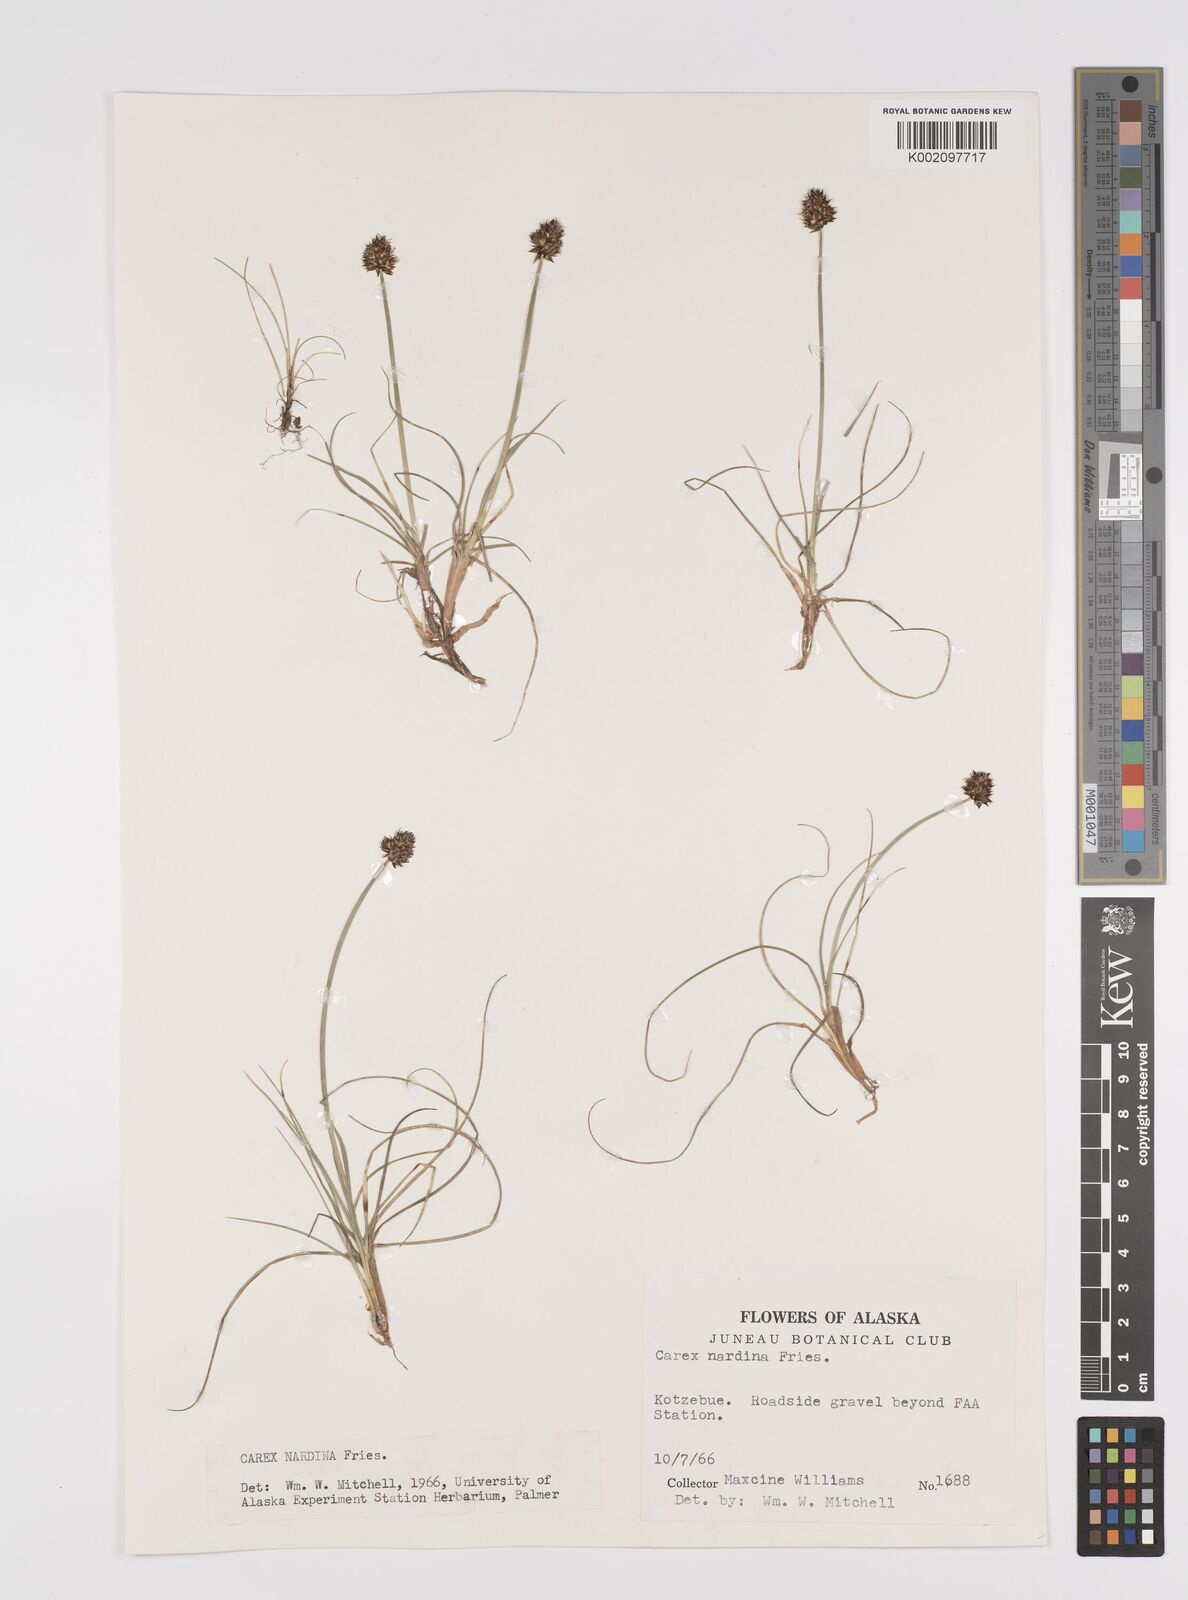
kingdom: Plantae
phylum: Tracheophyta
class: Liliopsida
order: Poales
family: Cyperaceae
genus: Carex
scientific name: Carex nardina
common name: Nard sedge
